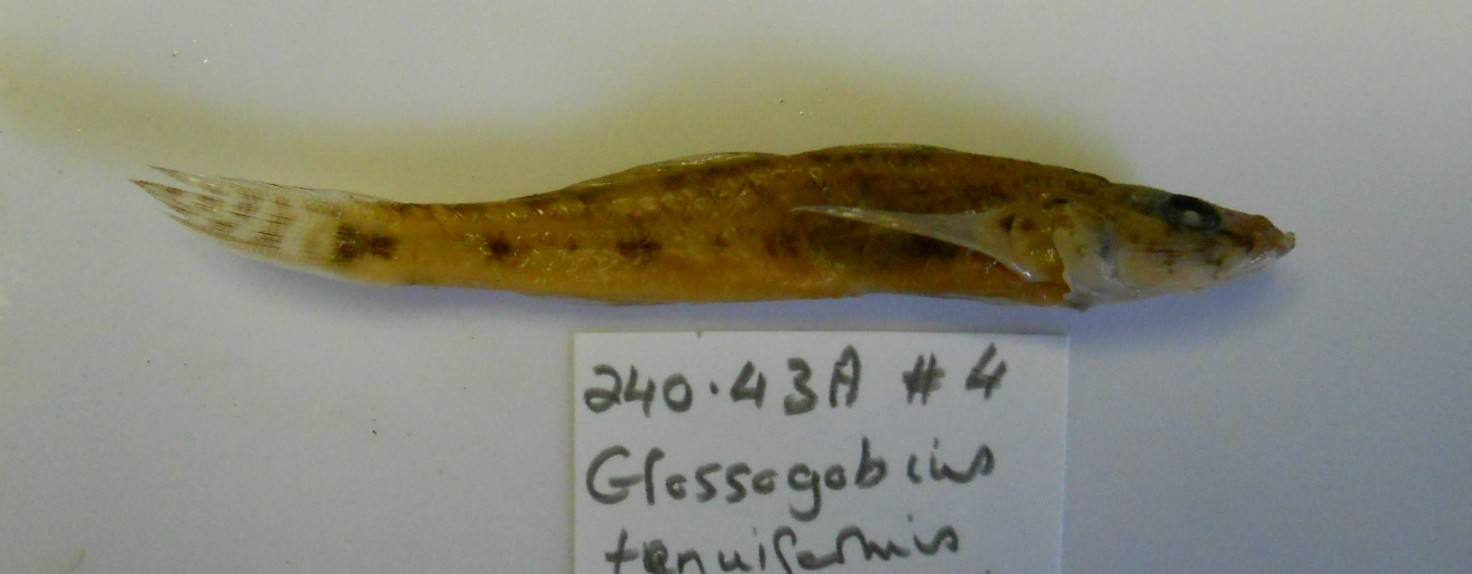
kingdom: Animalia
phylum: Chordata
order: Perciformes
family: Gobiidae
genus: Glossogobius
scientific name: Glossogobius giuris
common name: Tank goby
